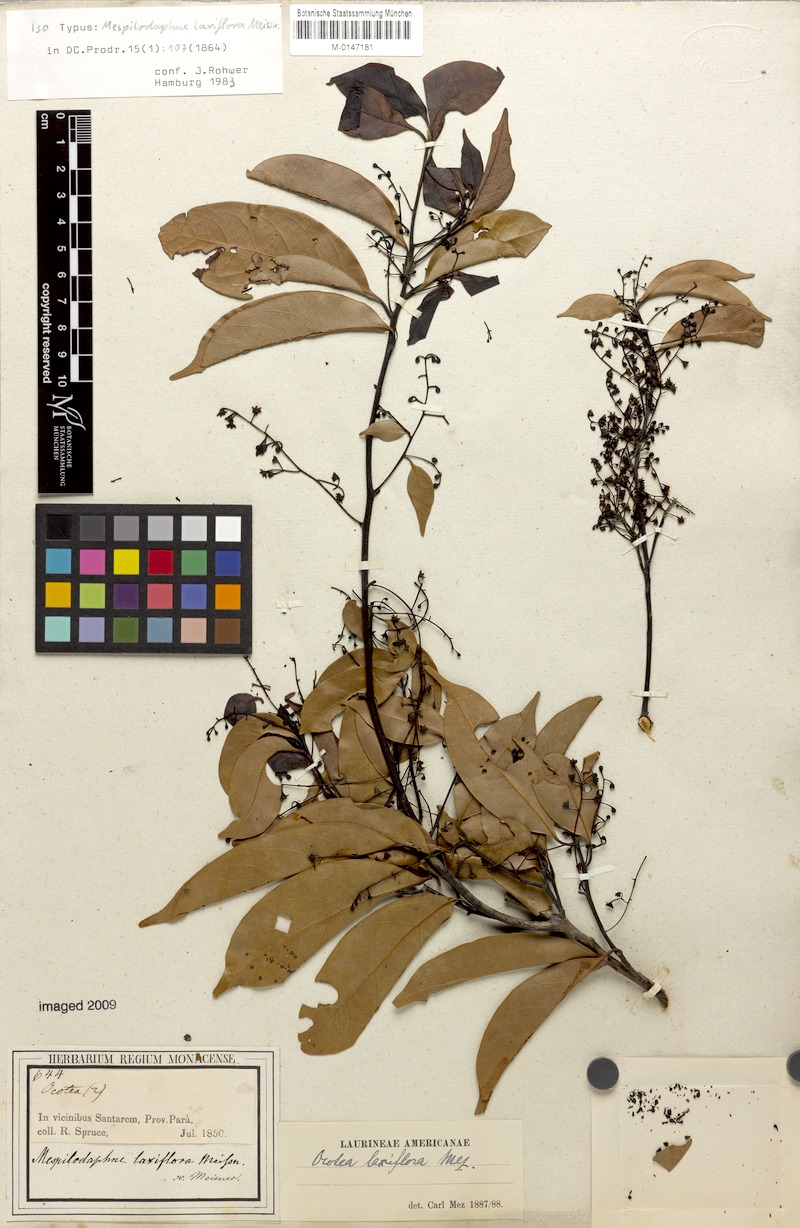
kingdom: Plantae
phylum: Tracheophyta
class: Magnoliopsida
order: Laurales
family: Lauraceae
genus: Ocotea
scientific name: Ocotea pauciflora
